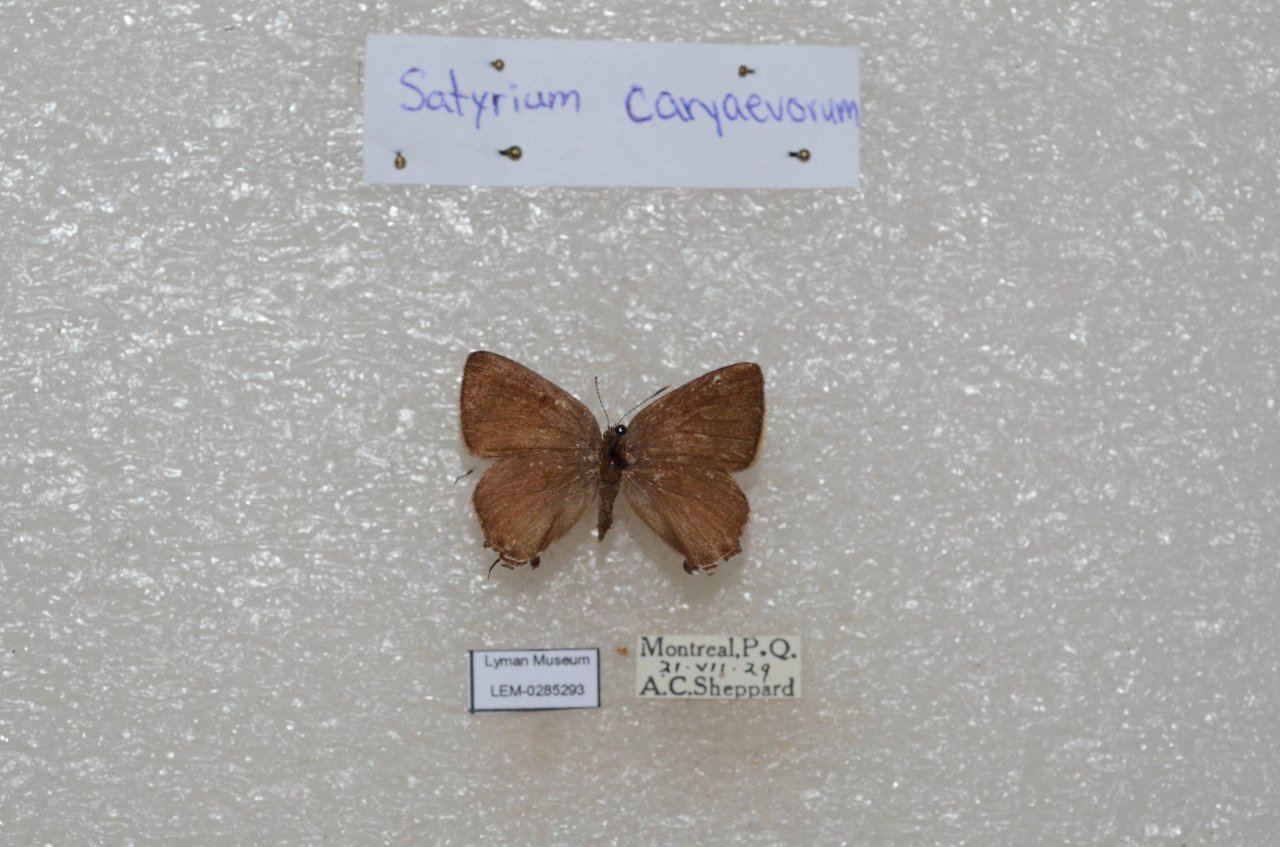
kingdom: Animalia
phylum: Arthropoda
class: Insecta
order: Lepidoptera
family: Lycaenidae
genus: Strymon
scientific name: Strymon caryaevorus
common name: Hickory Hairstreak
